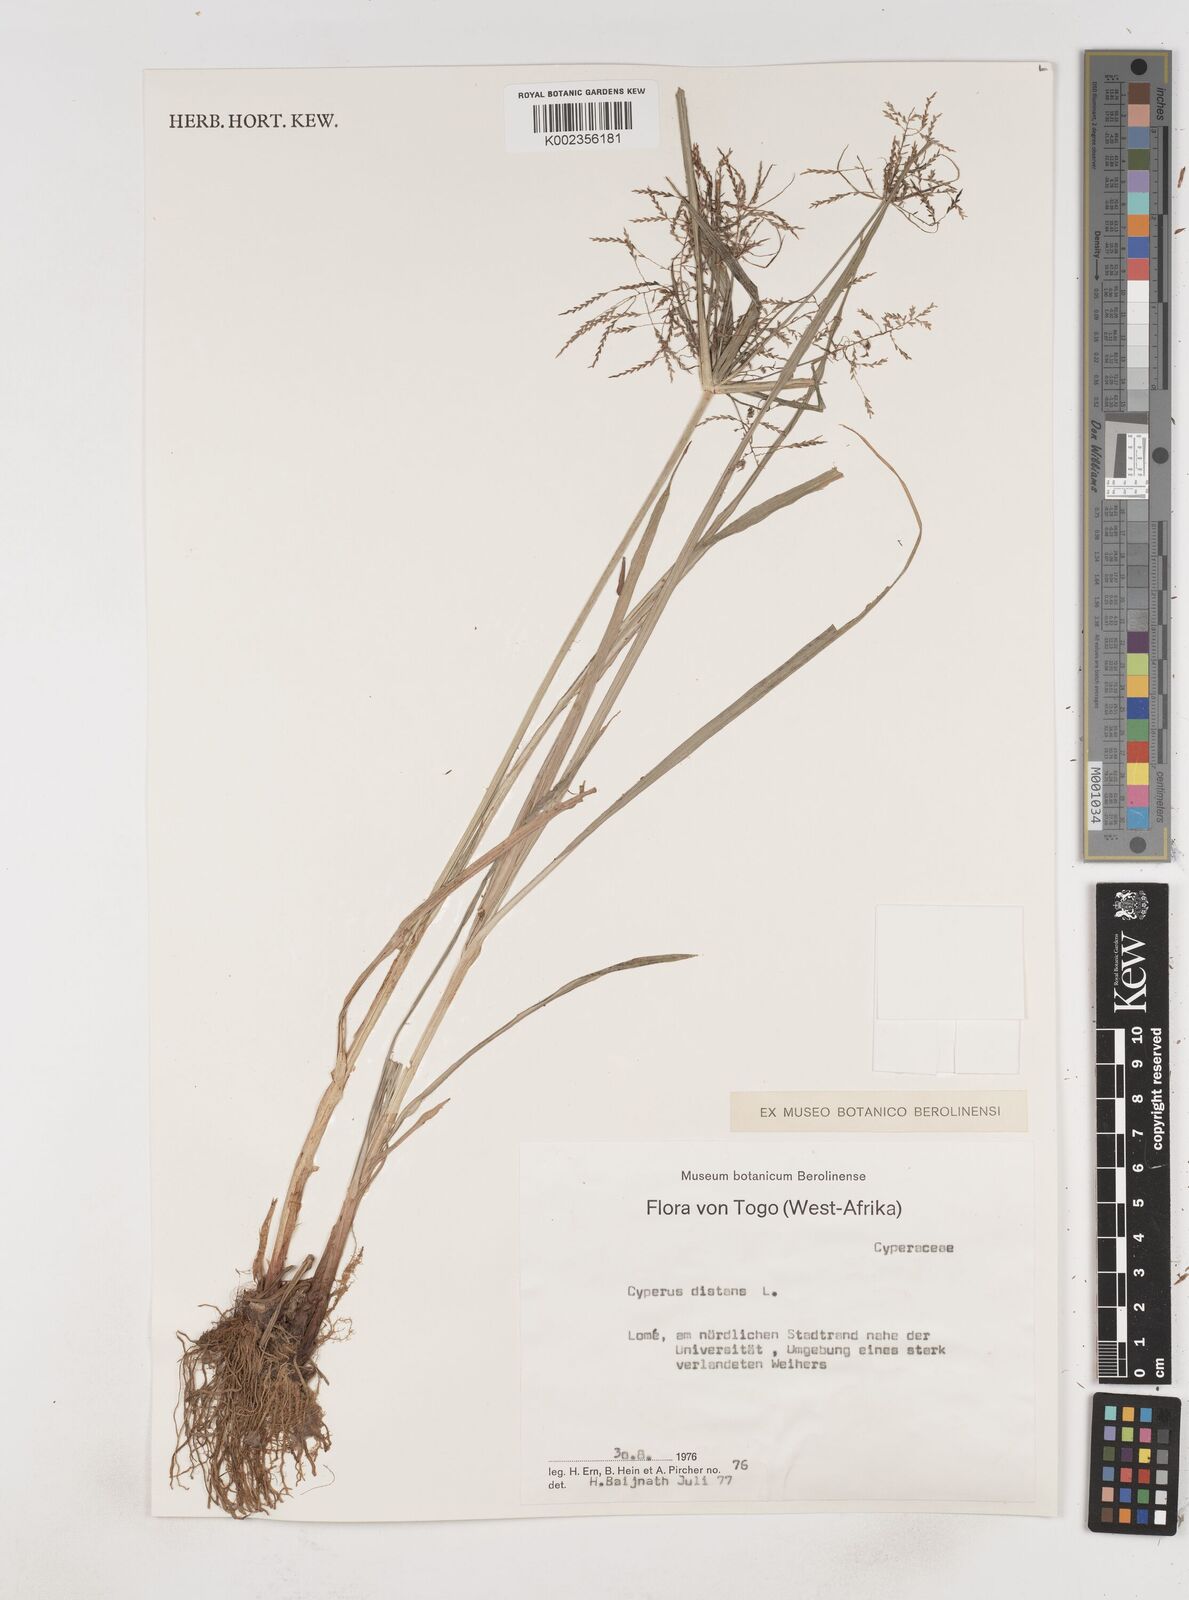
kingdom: Plantae
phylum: Tracheophyta
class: Liliopsida
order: Poales
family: Cyperaceae
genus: Cyperus
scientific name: Cyperus distans
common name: Slender cyperus
